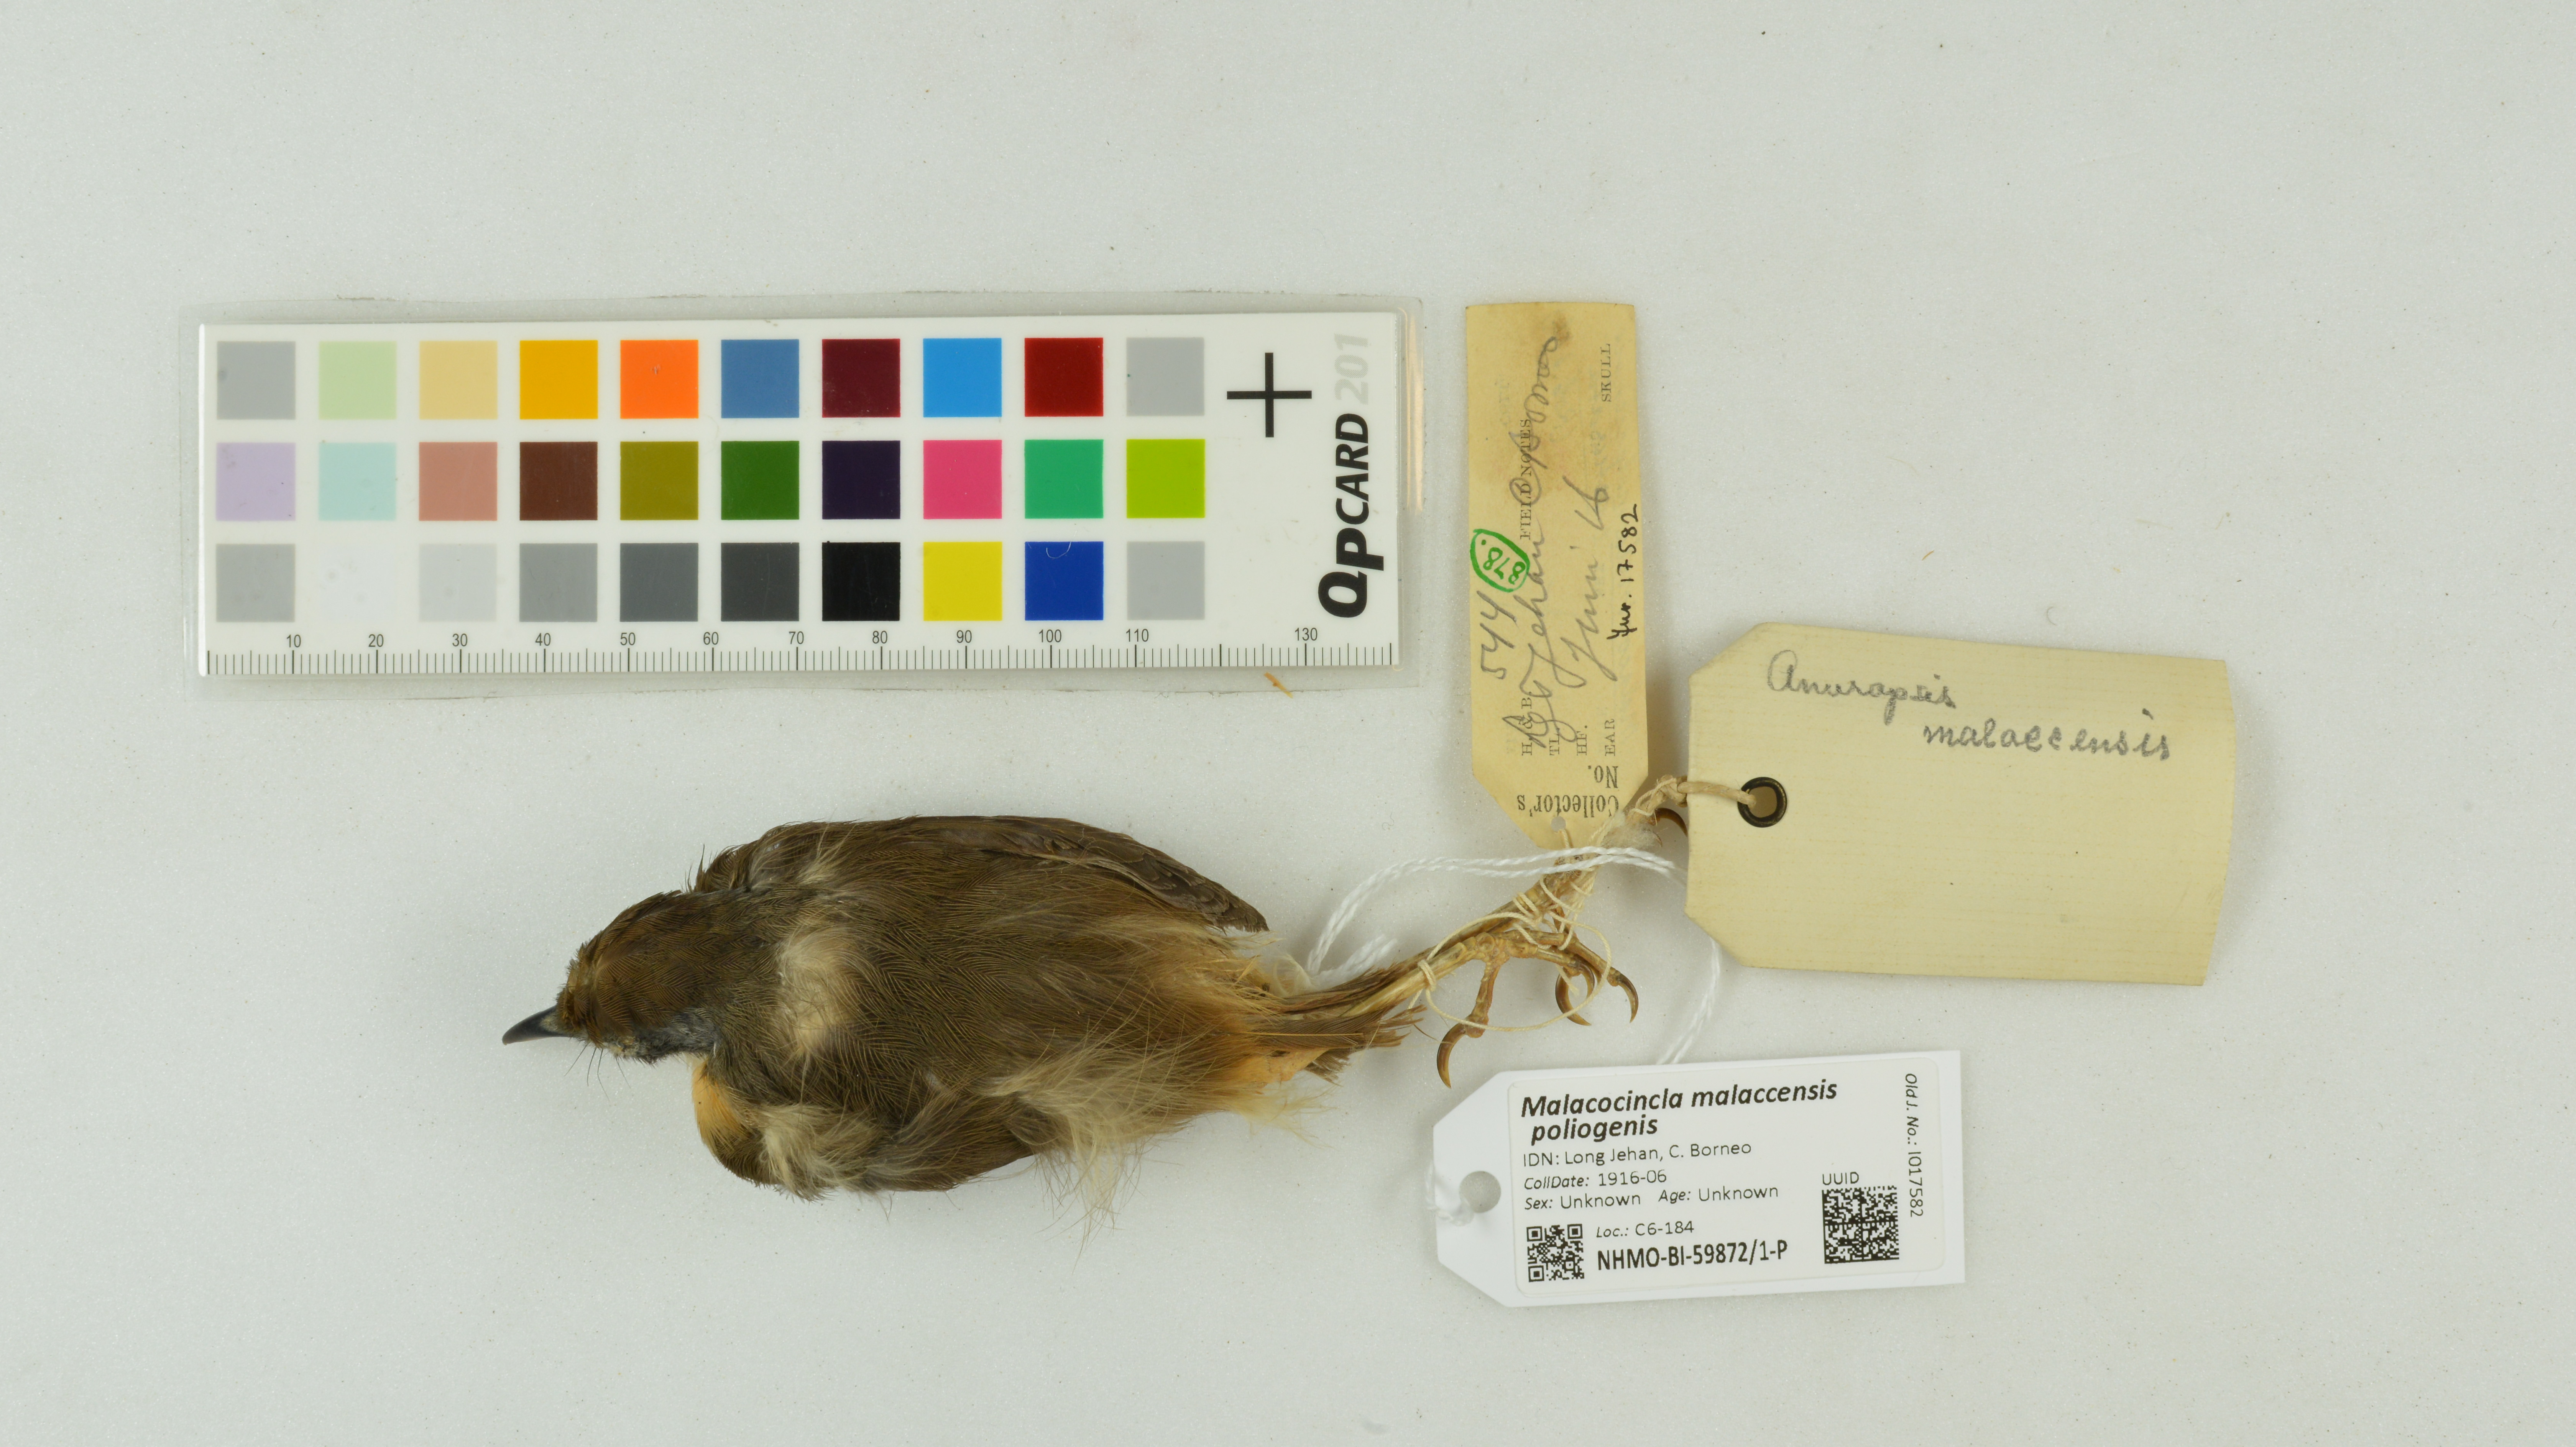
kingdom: Animalia
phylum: Chordata
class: Aves
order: Passeriformes
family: Pellorneidae
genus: Pellorneum
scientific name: Pellorneum malaccense
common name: Short-tailed babbler
